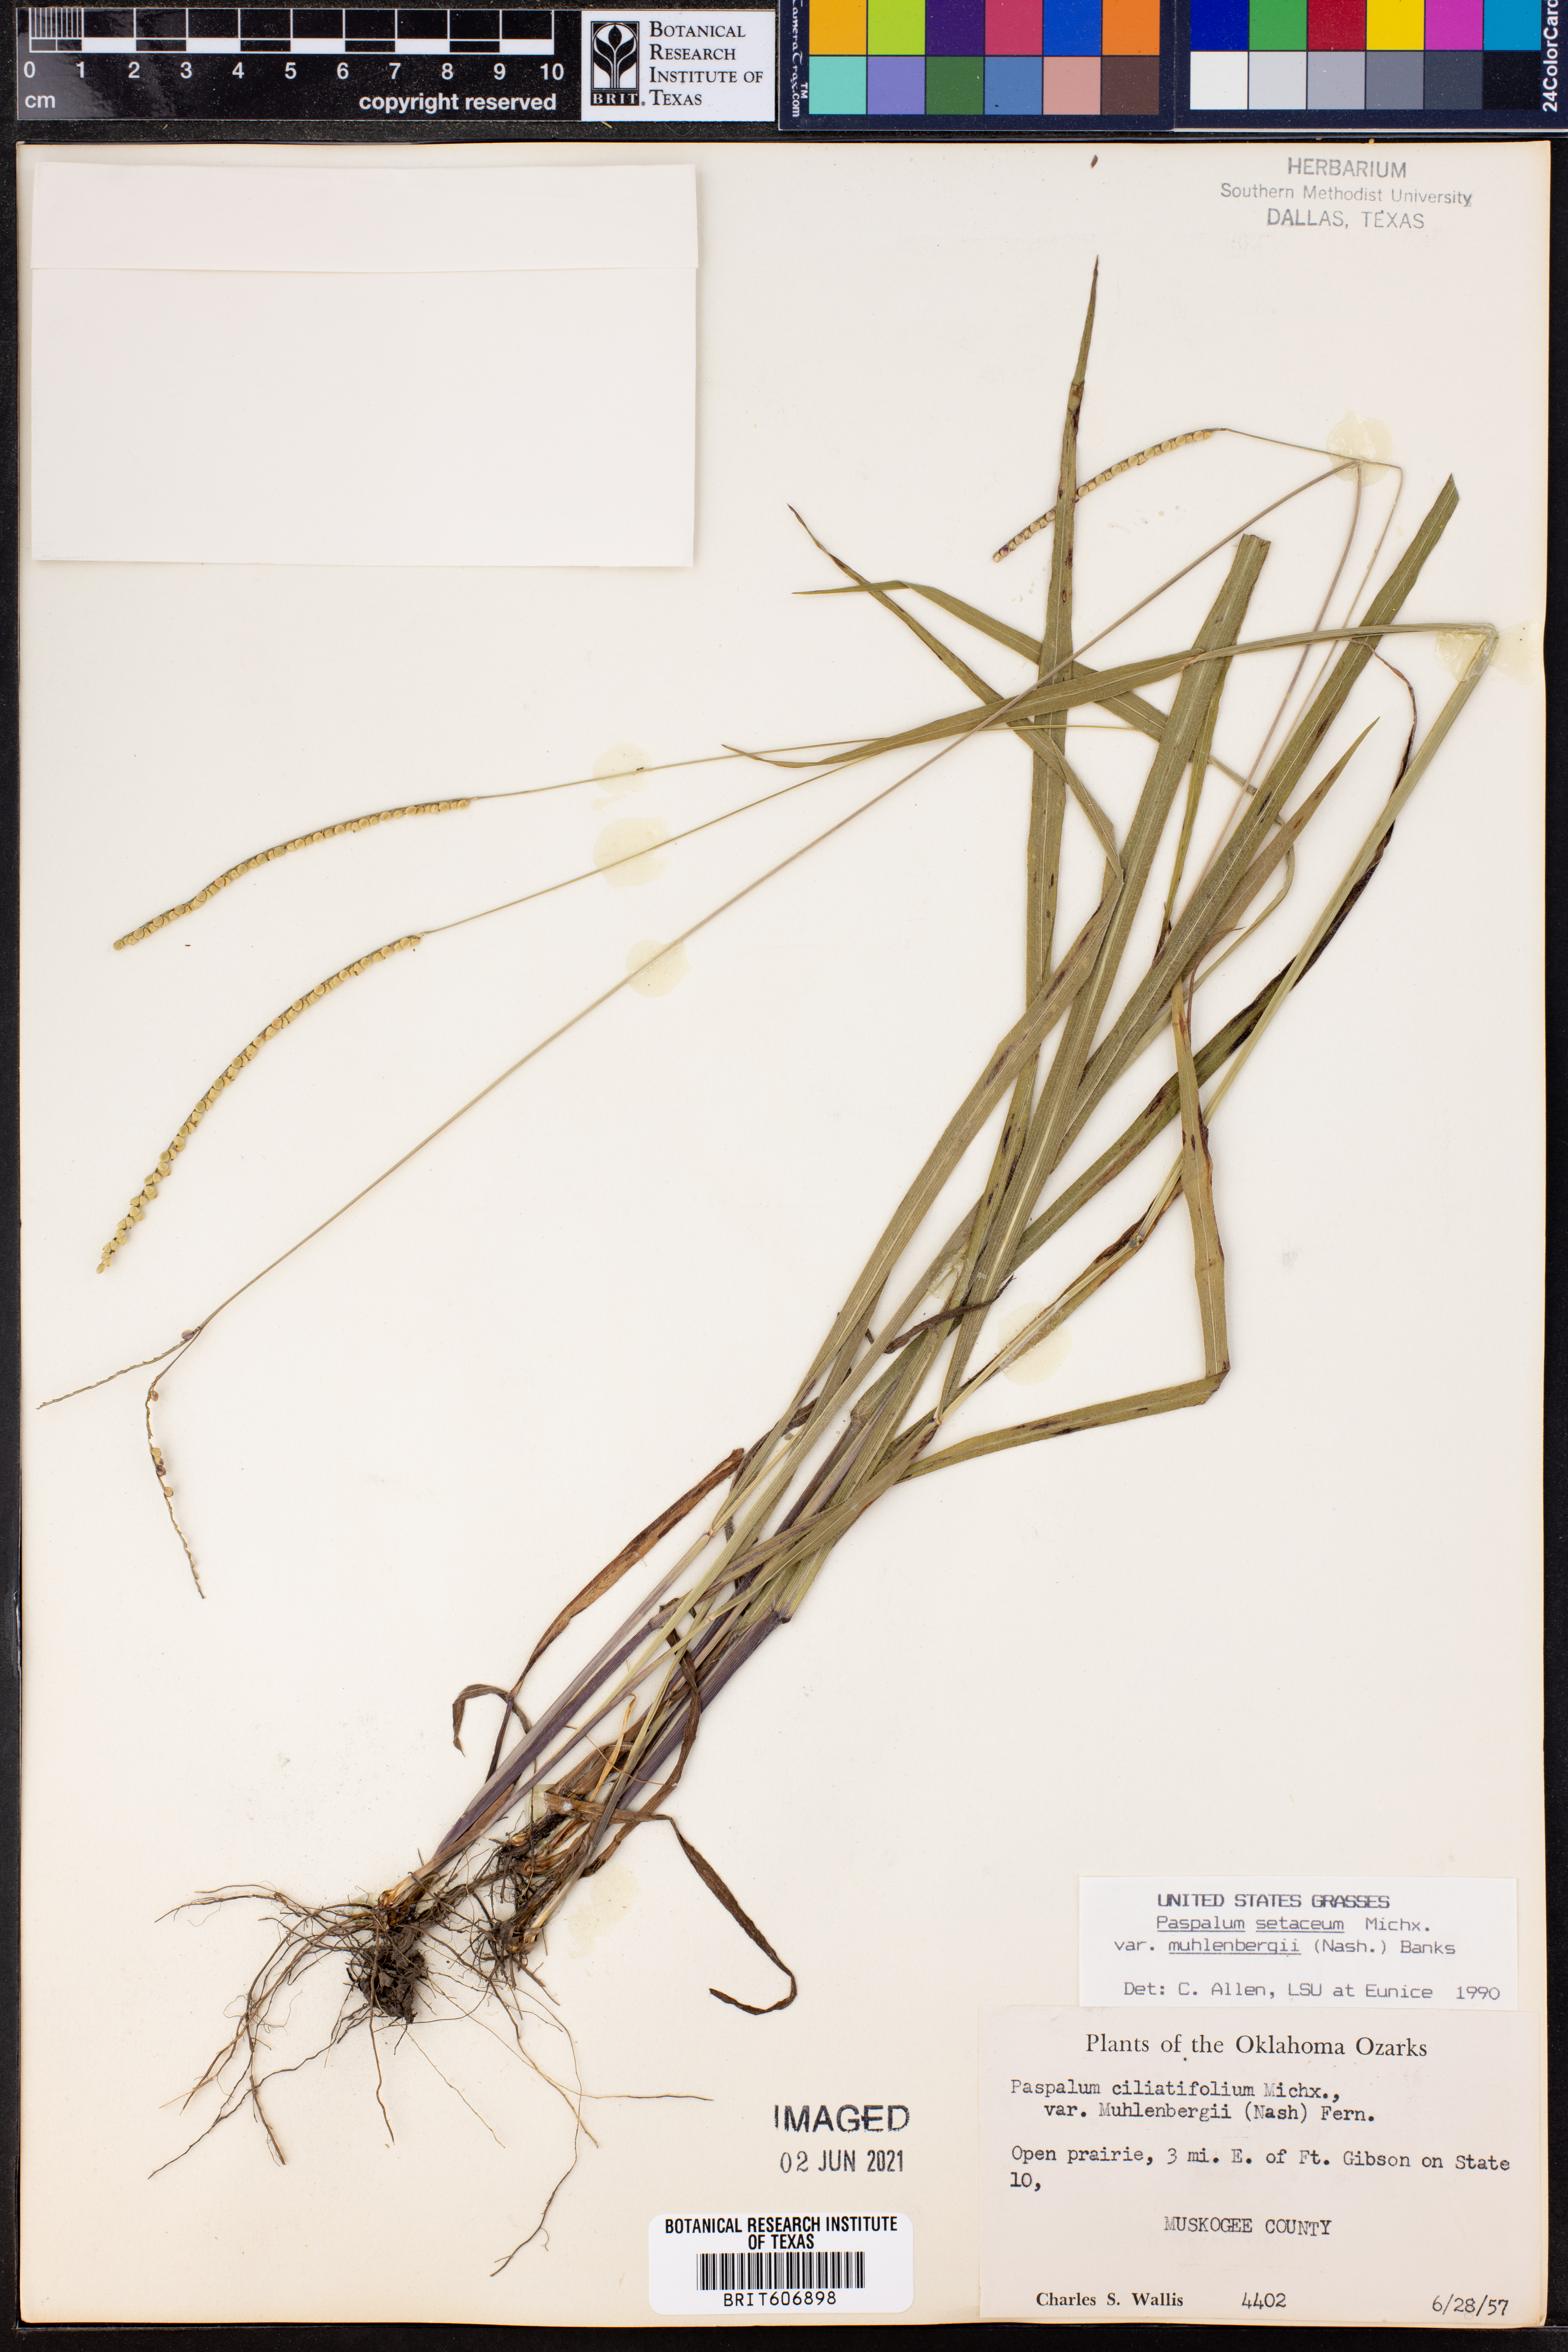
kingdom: Plantae
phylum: Tracheophyta
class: Liliopsida
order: Poales
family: Poaceae
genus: Paspalum
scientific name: Paspalum setaceum
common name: Slender paspalum
